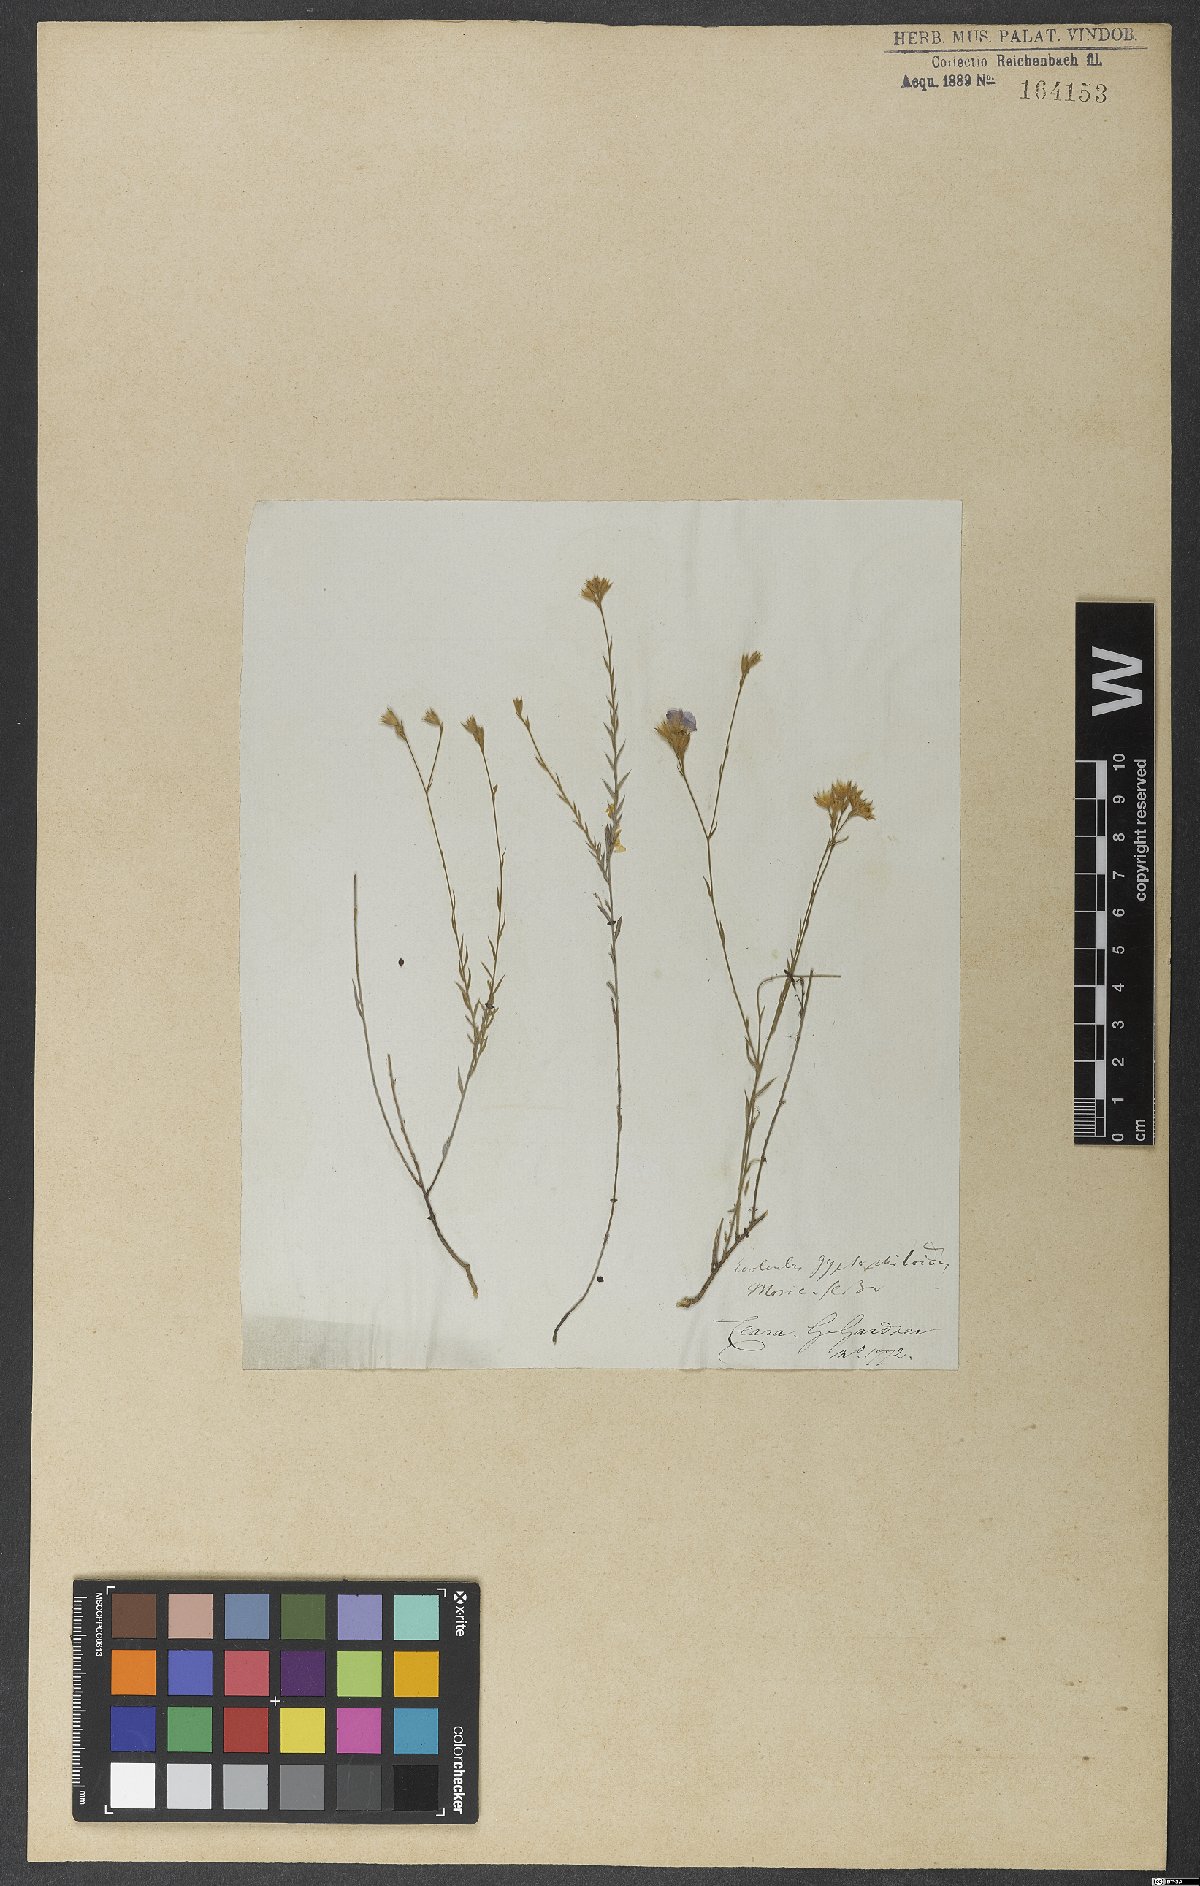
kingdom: Plantae
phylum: Tracheophyta
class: Magnoliopsida
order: Solanales
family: Convolvulaceae
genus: Evolvulus
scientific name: Evolvulus gypsophiloides
